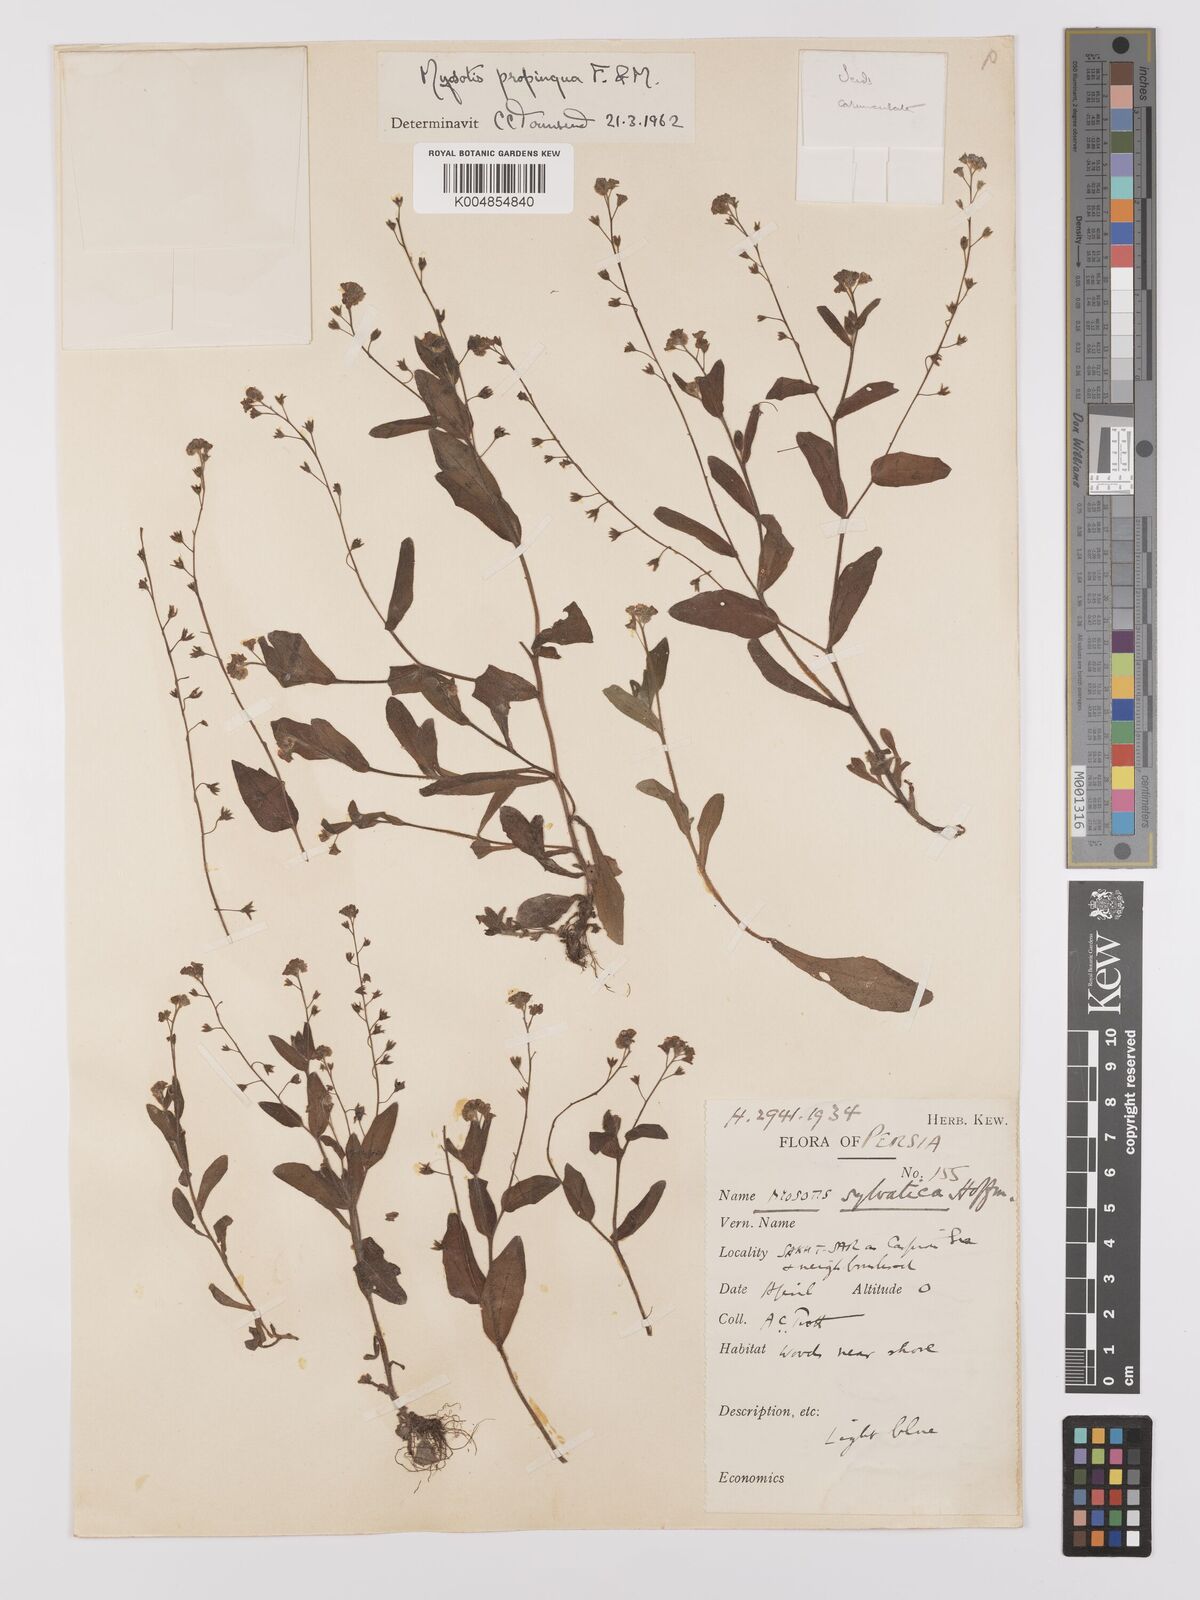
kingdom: Plantae
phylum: Tracheophyta
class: Magnoliopsida
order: Boraginales
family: Boraginaceae
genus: Myosotis
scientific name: Myosotis propinqua
